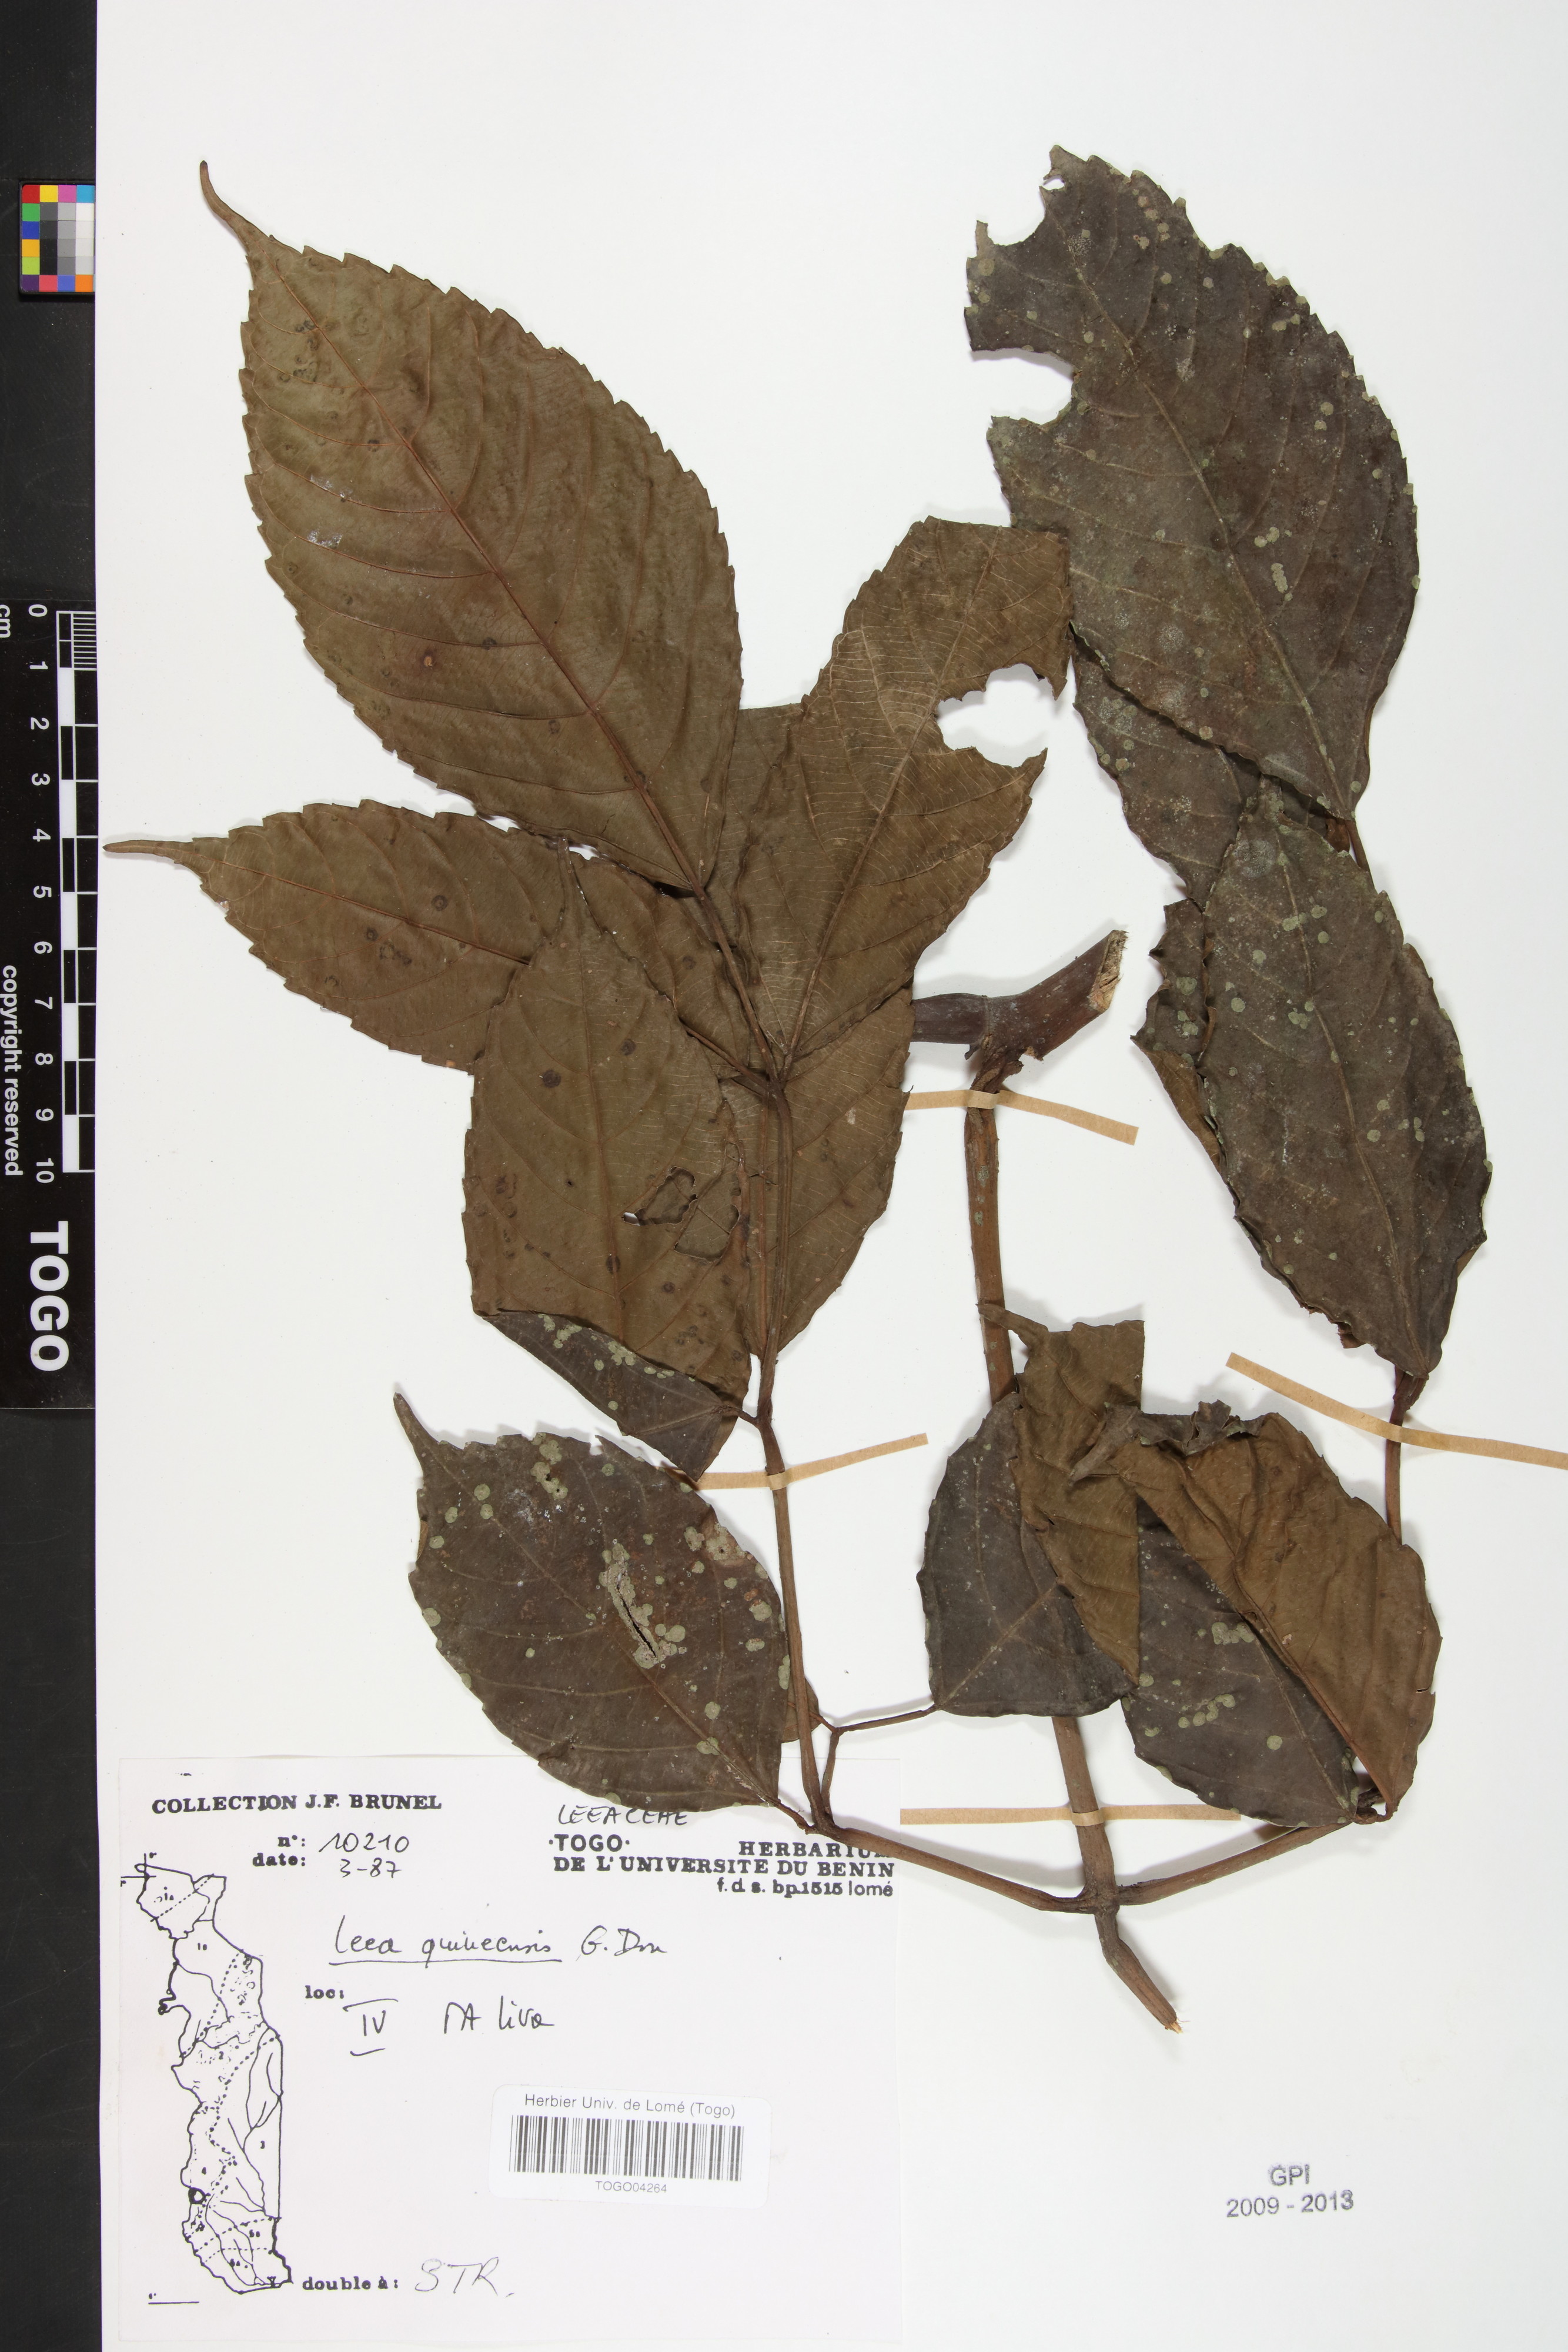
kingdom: Plantae
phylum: Tracheophyta
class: Magnoliopsida
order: Vitales
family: Vitaceae
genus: Leea
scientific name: Leea guineensis
